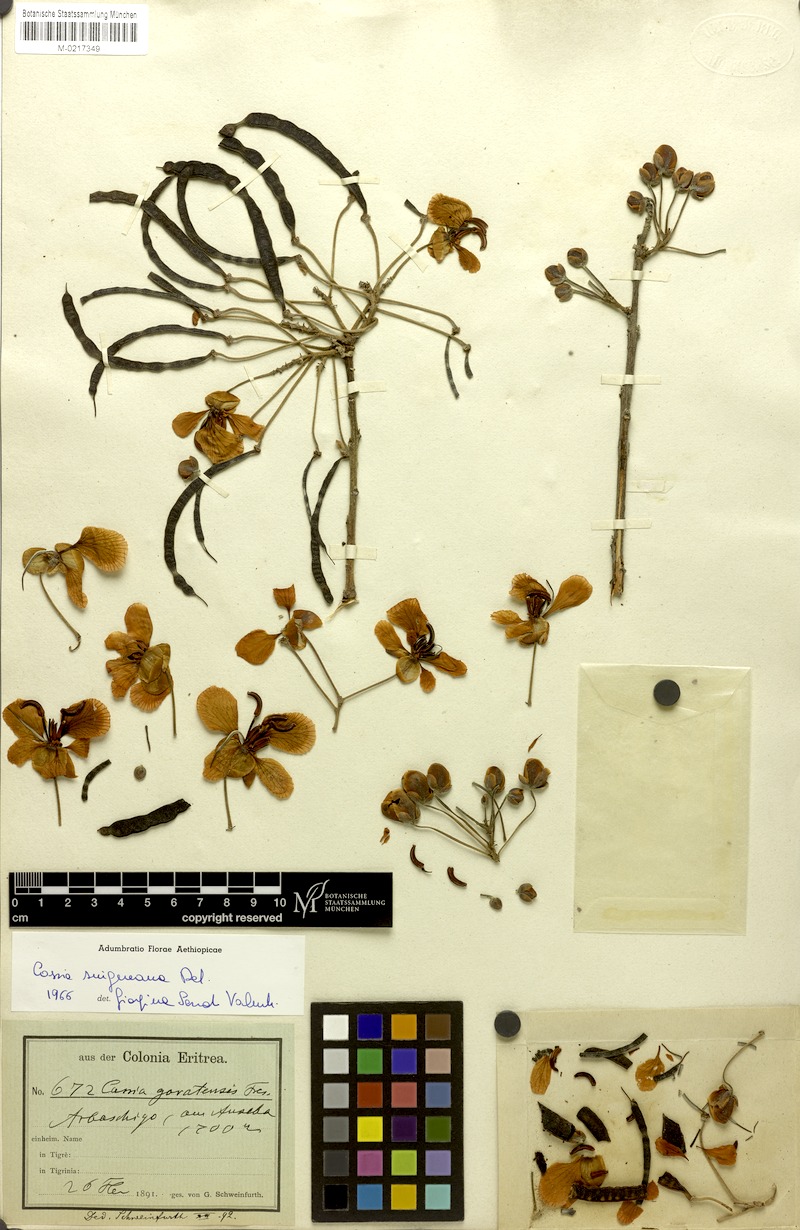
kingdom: Plantae
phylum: Tracheophyta
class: Magnoliopsida
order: Fabales
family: Fabaceae
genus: Senna
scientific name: Senna singueana
